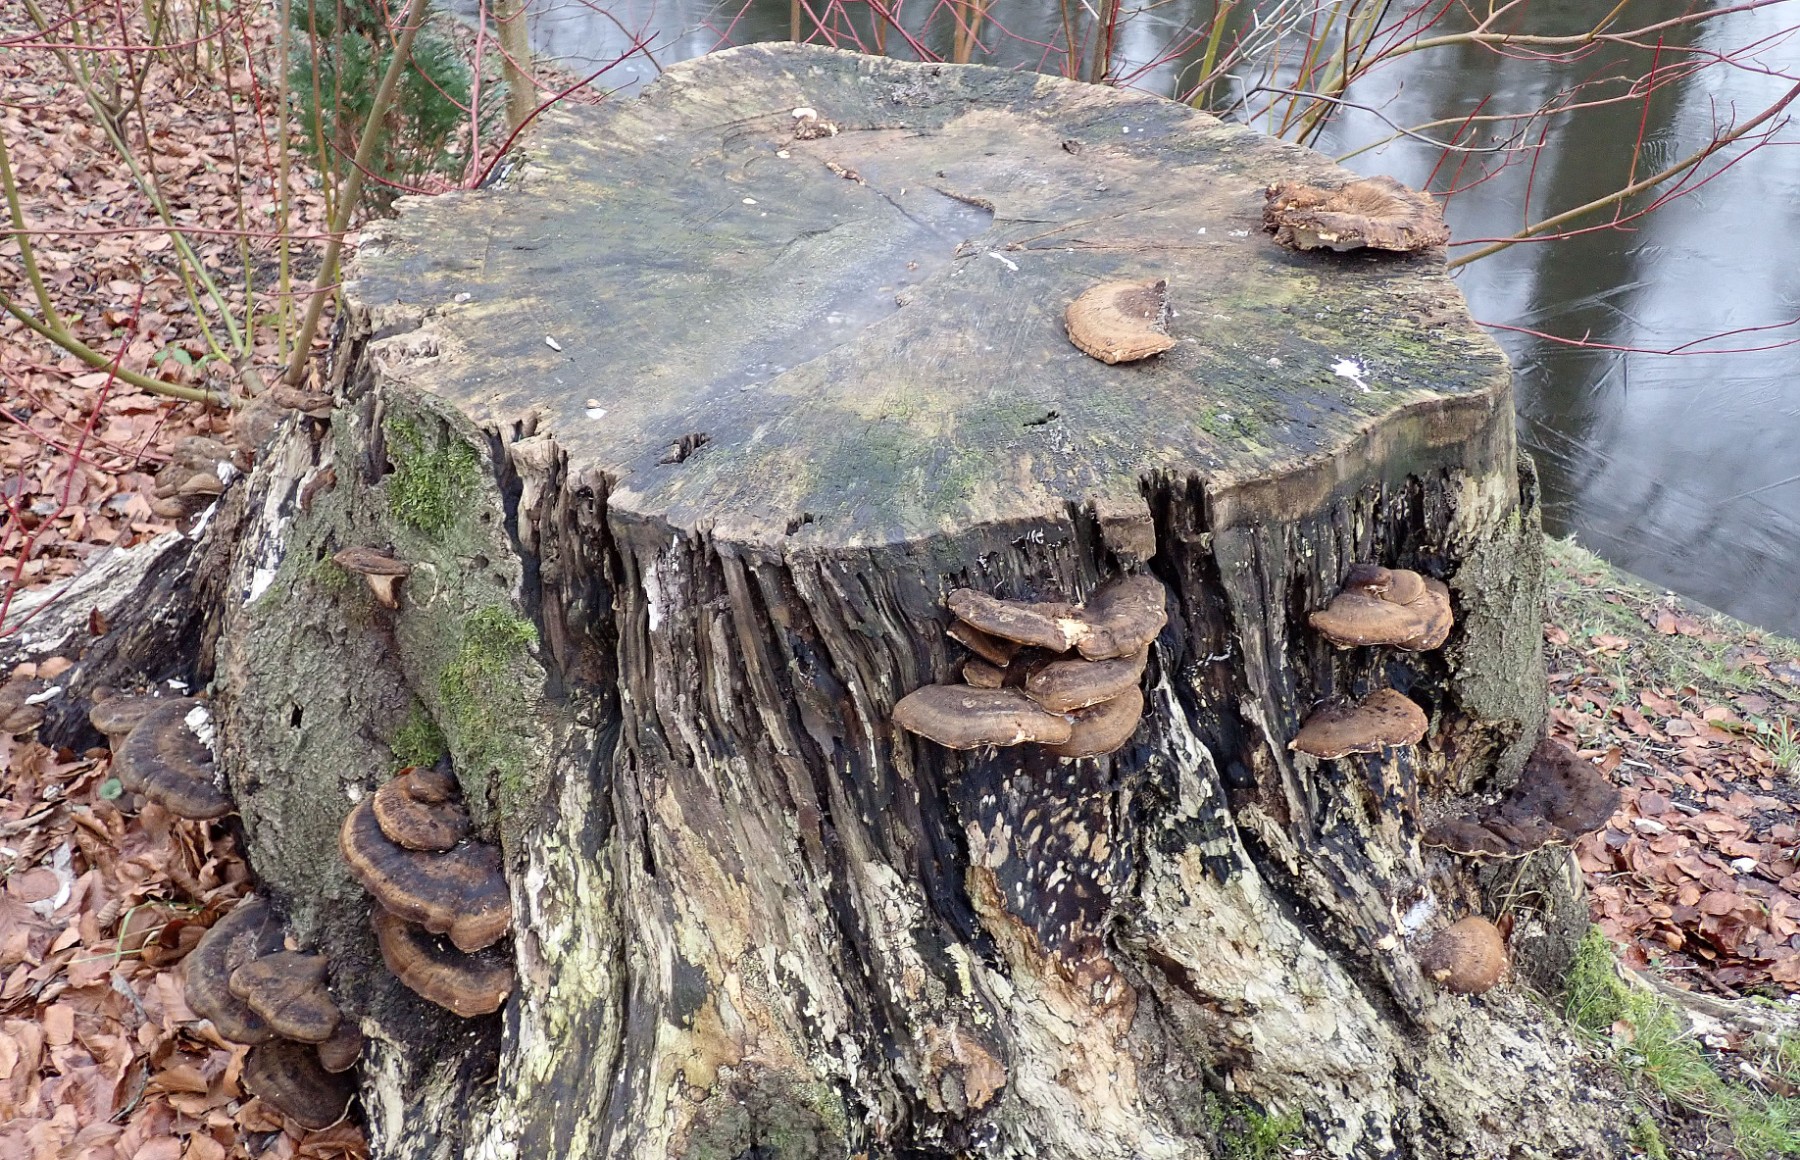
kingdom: Fungi
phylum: Basidiomycota
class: Agaricomycetes
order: Polyporales
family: Ischnodermataceae
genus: Ischnoderma
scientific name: Ischnoderma resinosum
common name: løv-tjæreporesvamp
